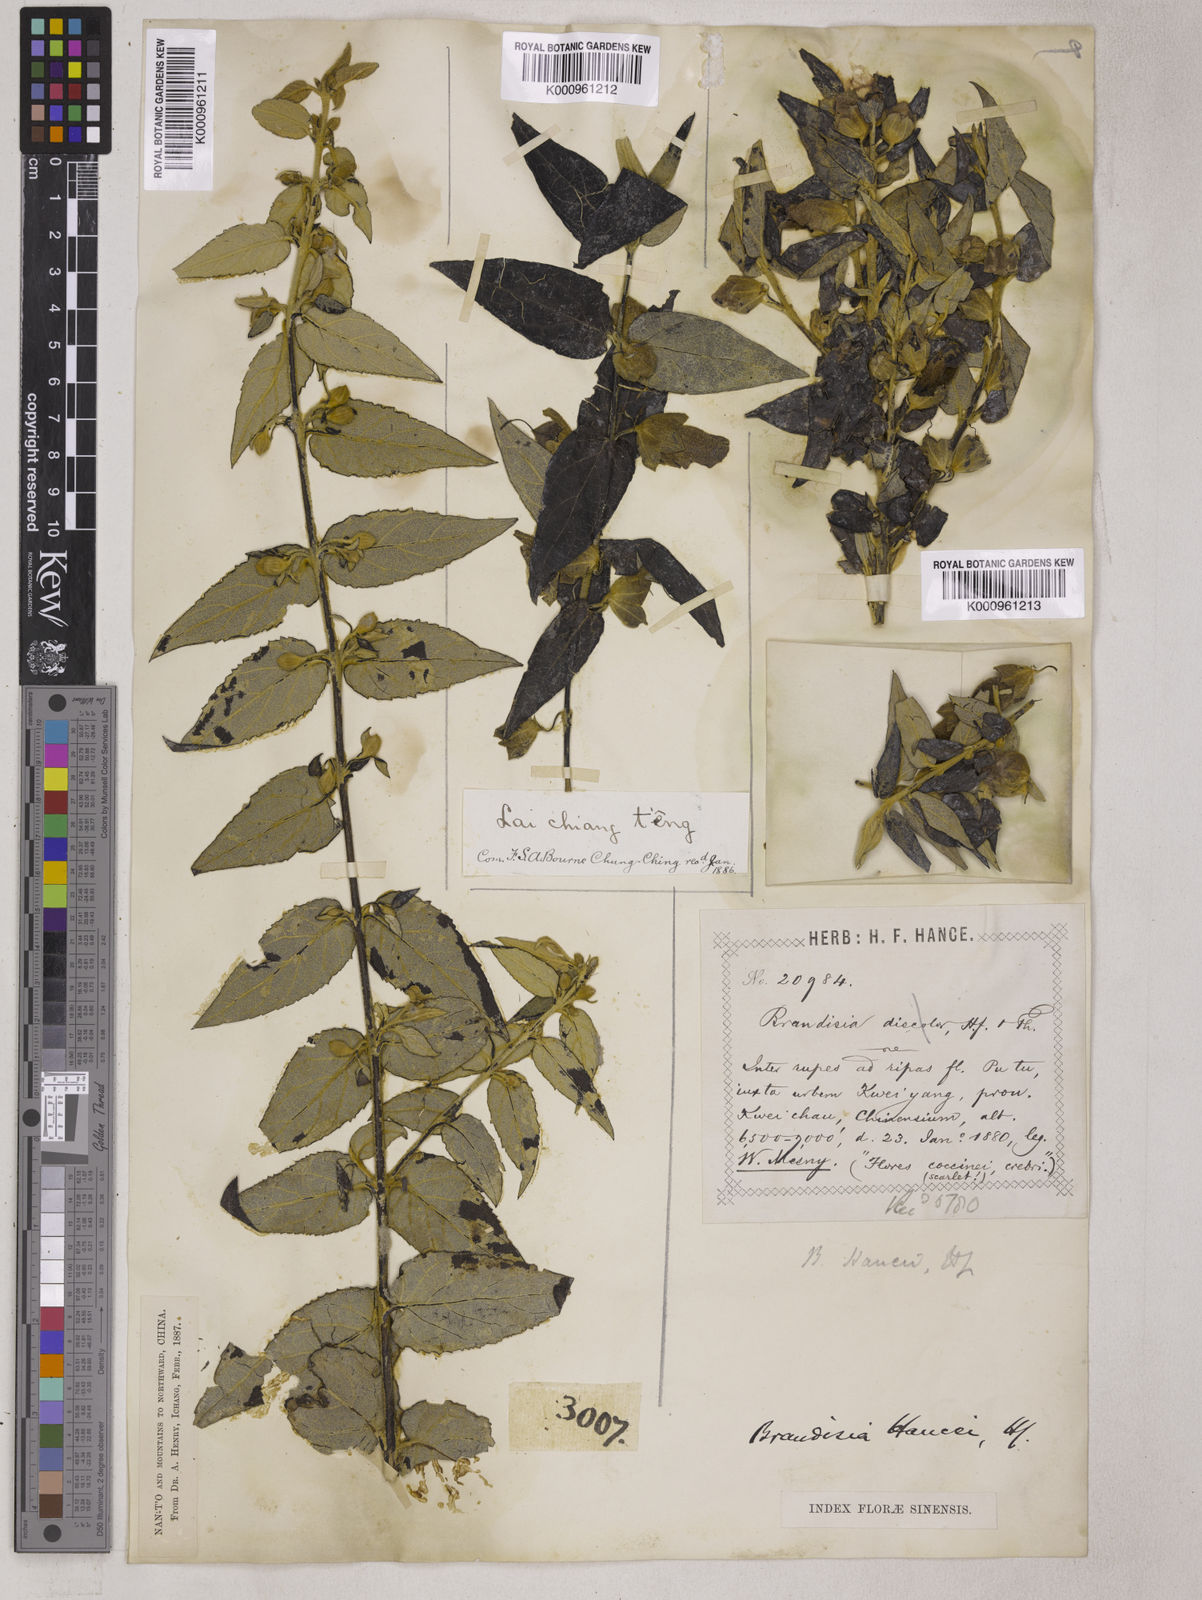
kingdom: Plantae
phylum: Tracheophyta
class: Magnoliopsida
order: Lamiales
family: Orobanchaceae
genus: Brandisia
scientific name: Brandisia hancei
